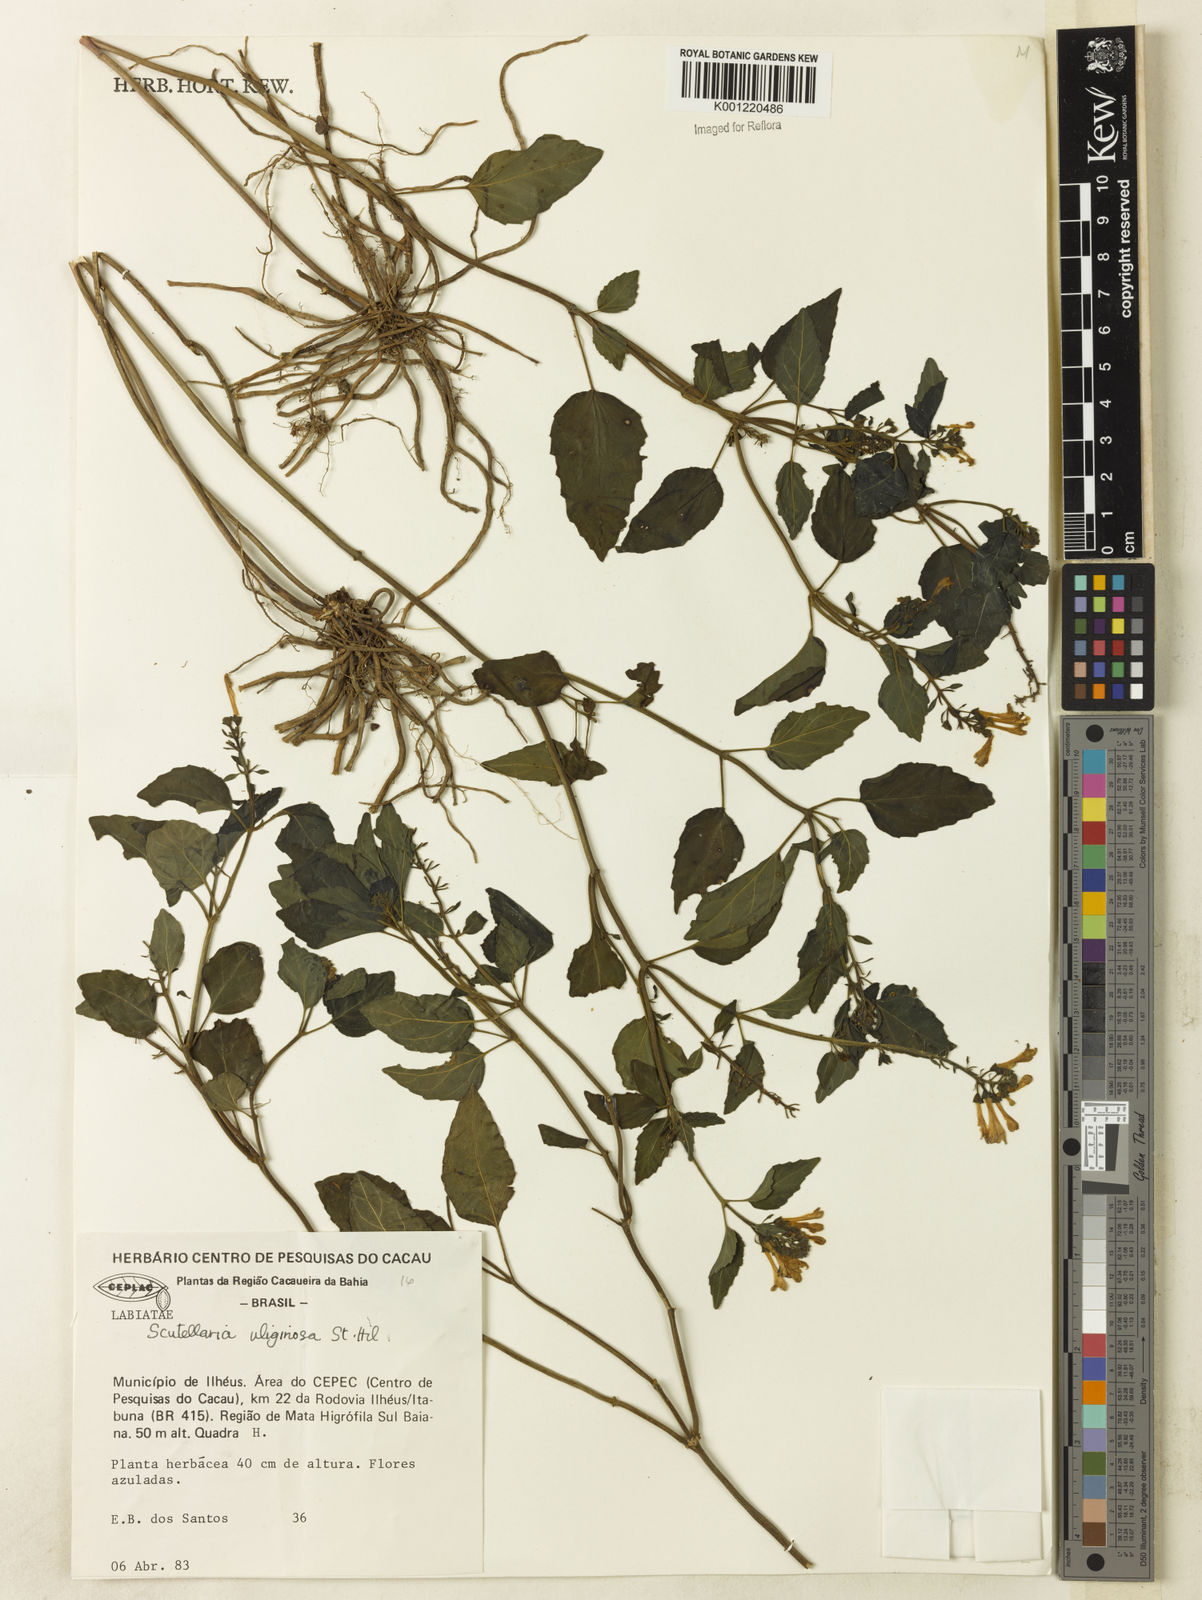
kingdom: Plantae
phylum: Tracheophyta
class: Magnoliopsida
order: Lamiales
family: Lamiaceae
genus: Scutellaria
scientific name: Scutellaria uliginosa
